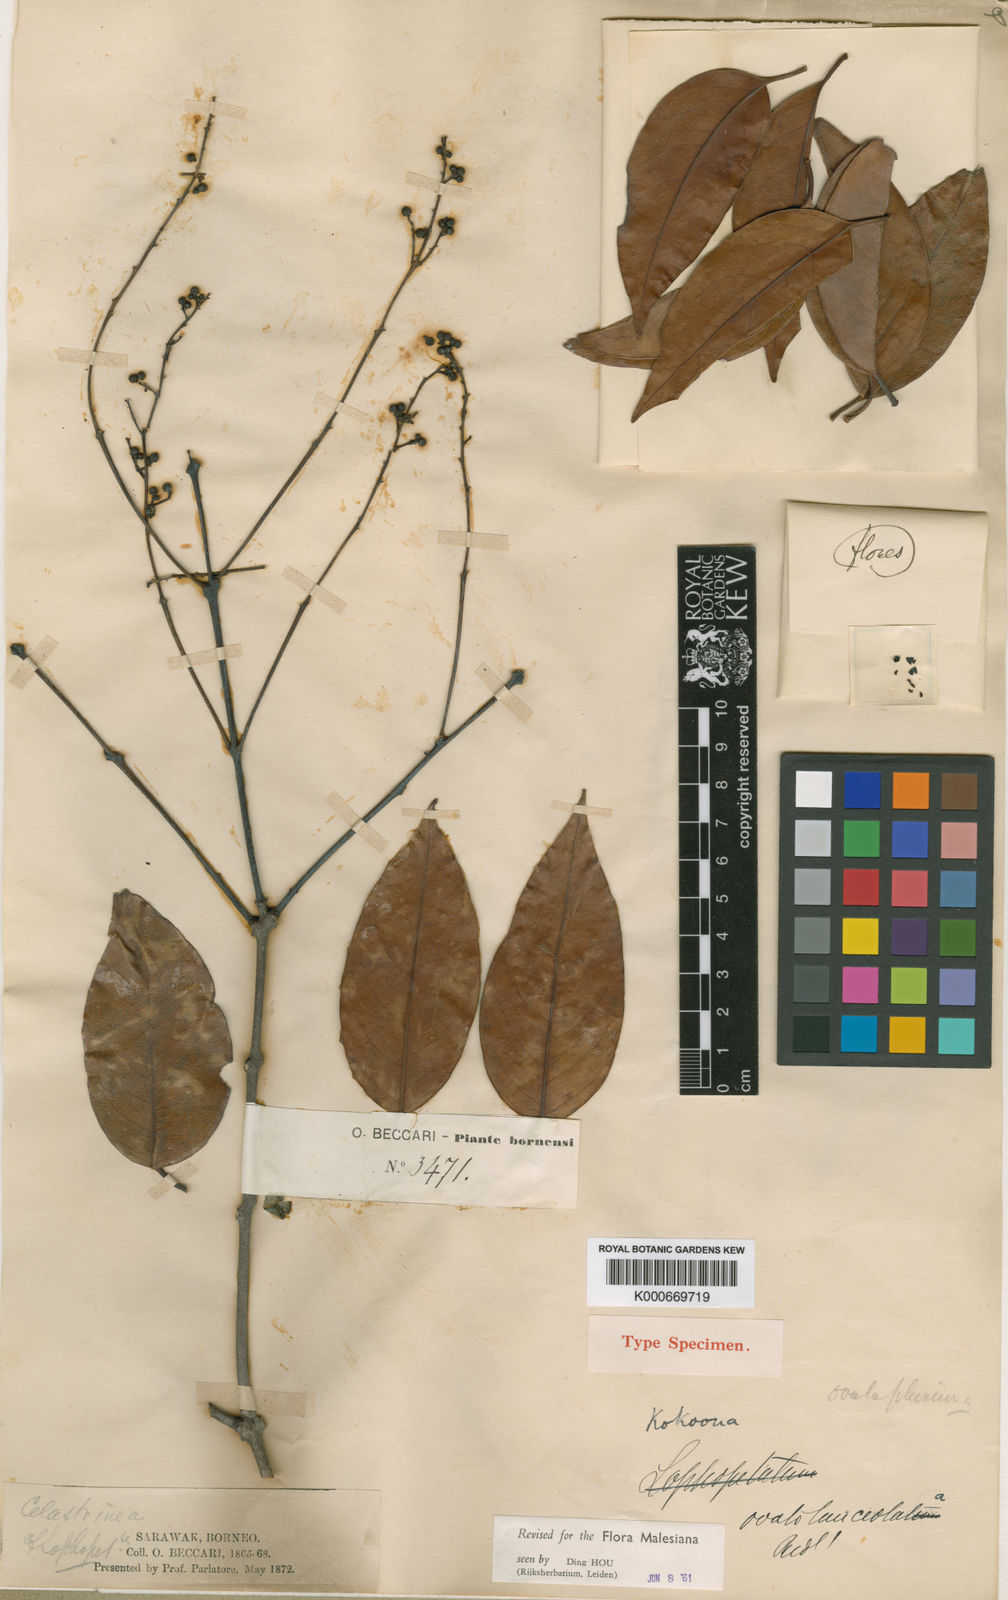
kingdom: Plantae
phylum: Tracheophyta
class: Magnoliopsida
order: Celastrales
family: Celastraceae
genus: Kokoona
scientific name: Kokoona ovatolanceolata
